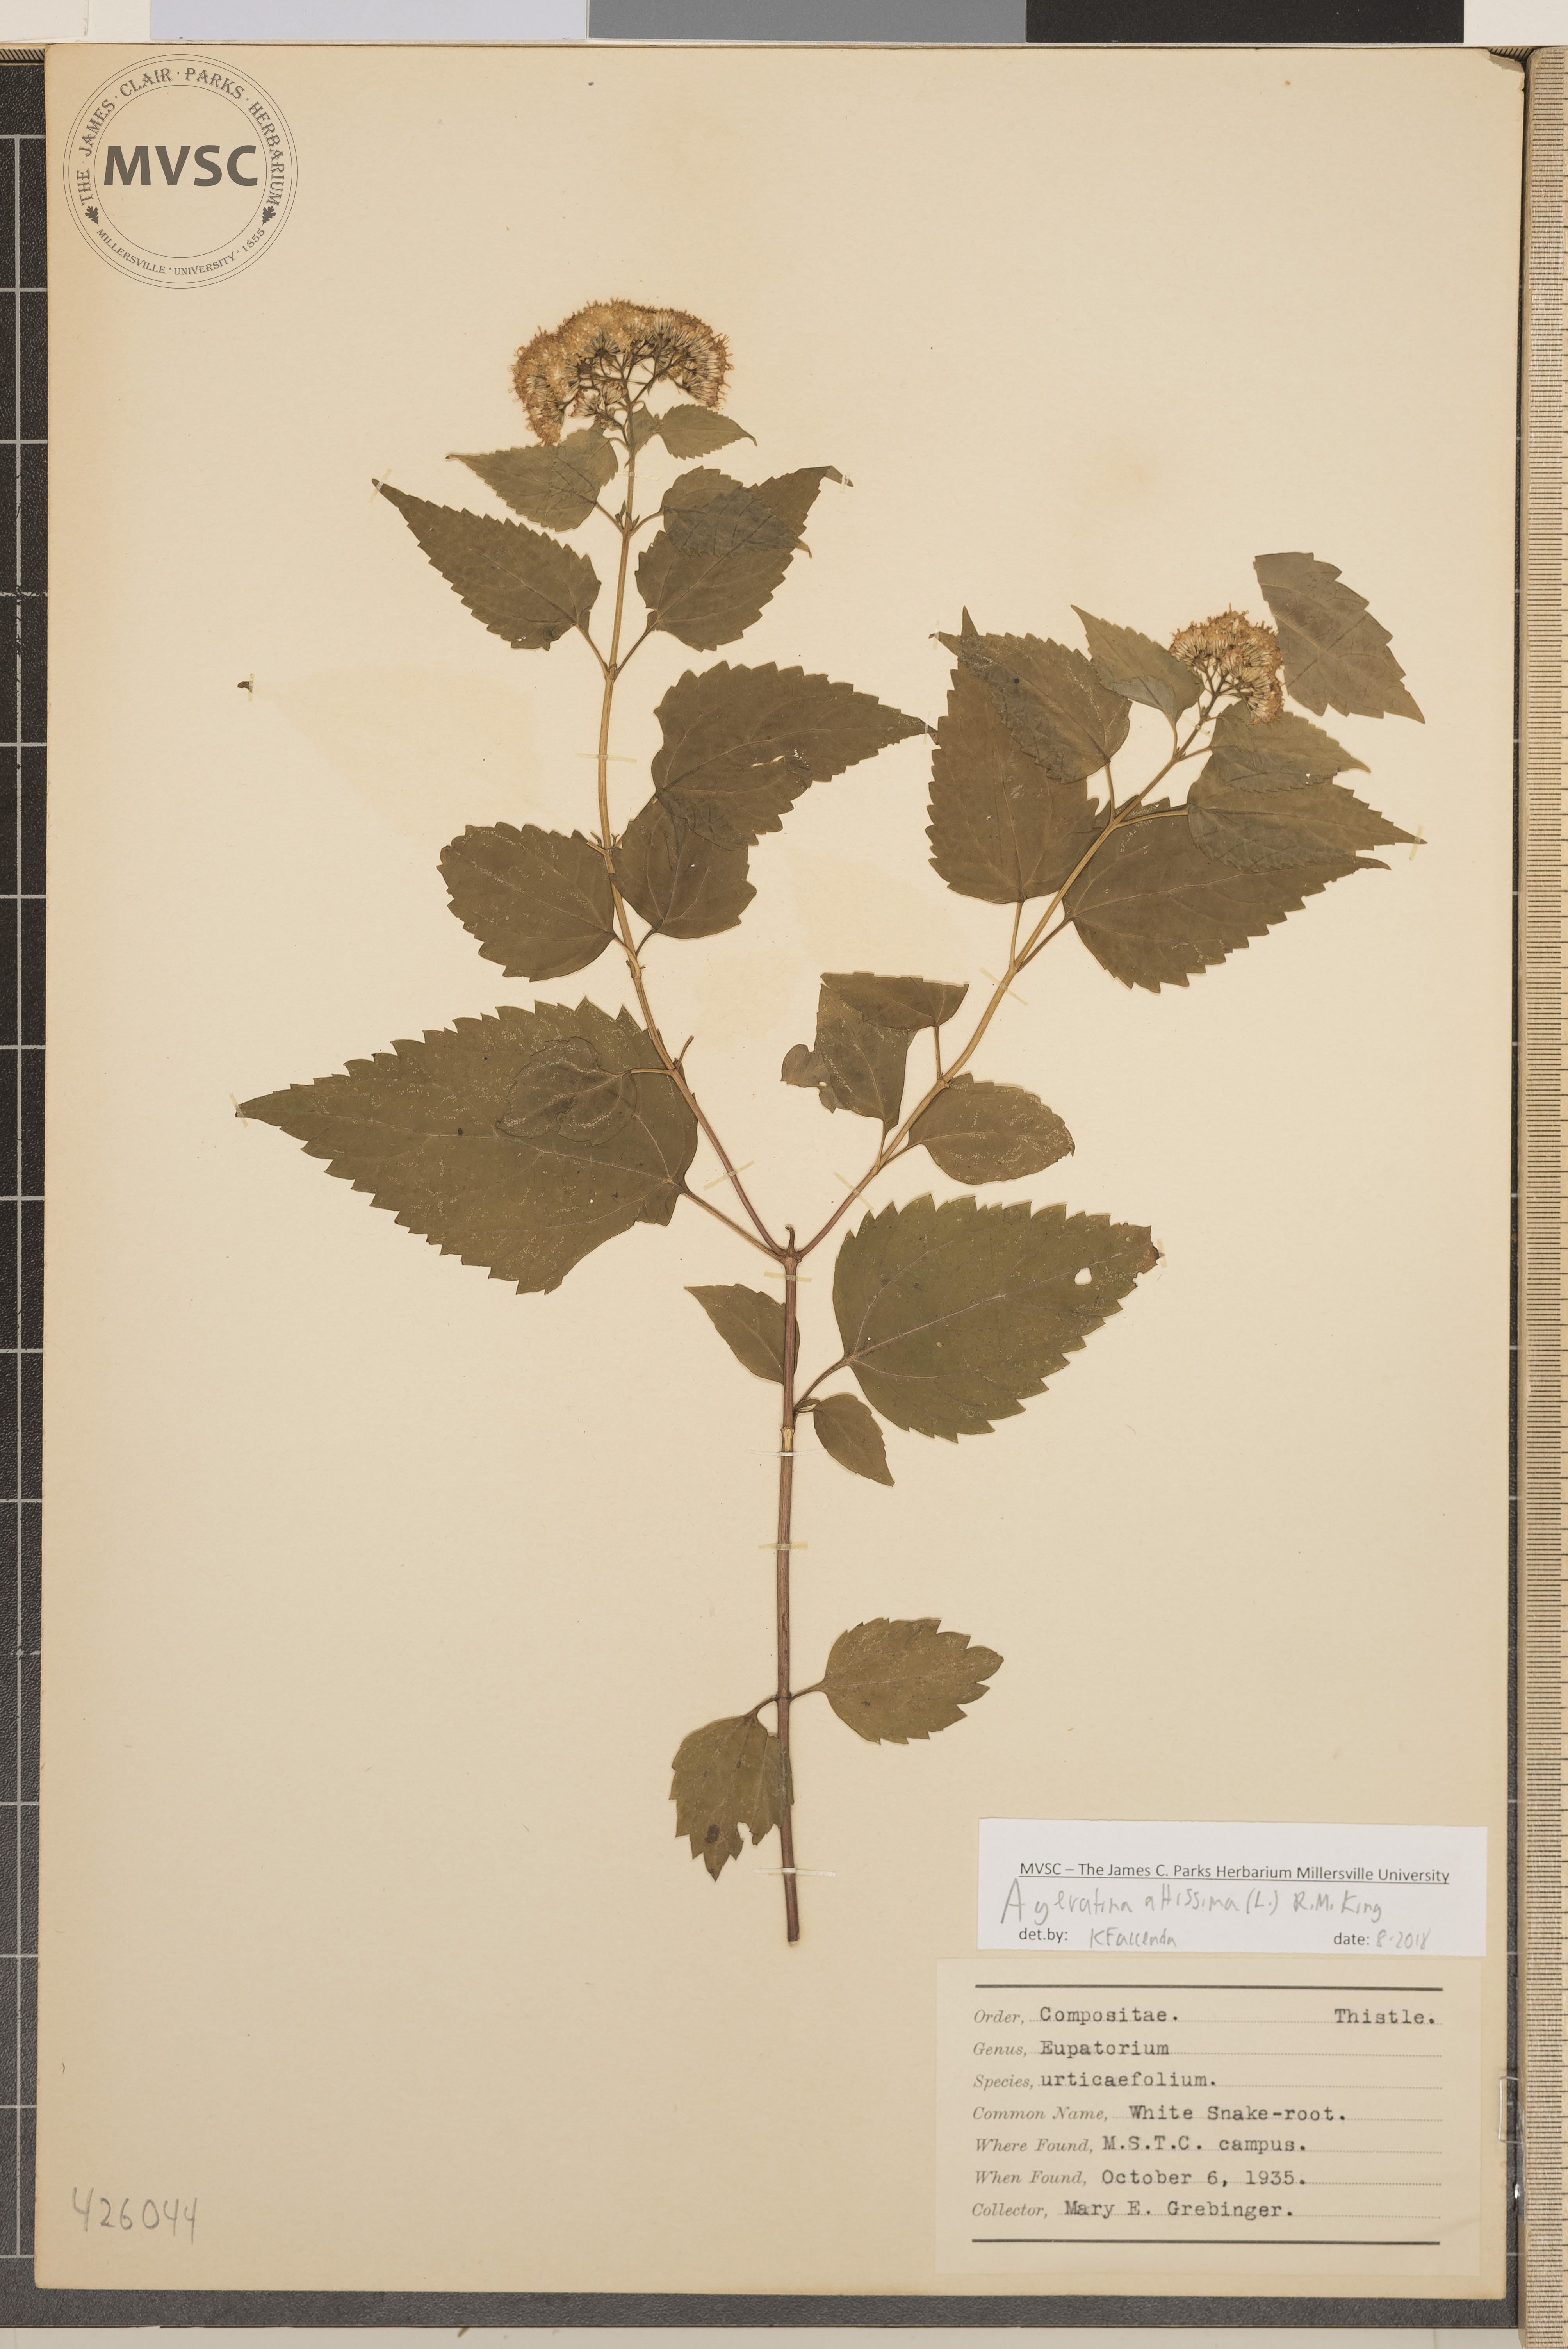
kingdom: Plantae
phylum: Tracheophyta
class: Magnoliopsida
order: Asterales
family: Asteraceae
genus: Ageratina
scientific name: Ageratina altissima
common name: White snakeroot
